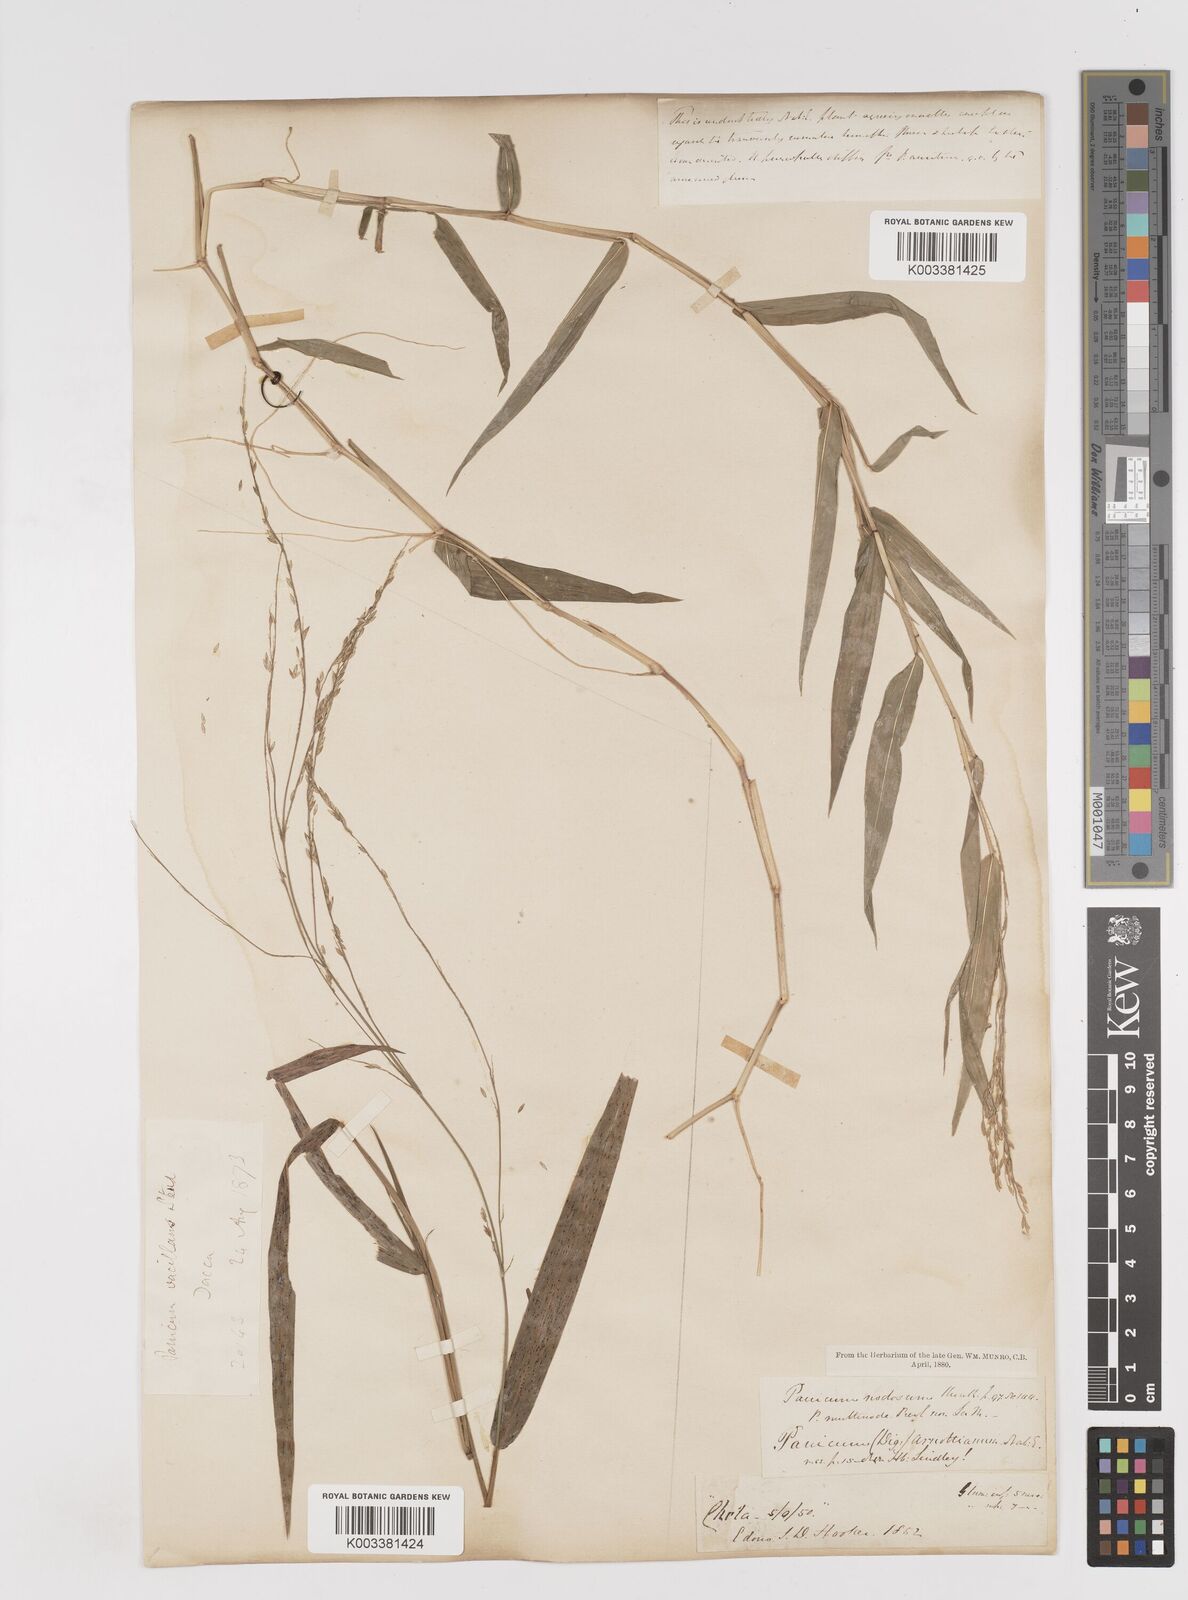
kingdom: Plantae
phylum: Tracheophyta
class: Liliopsida
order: Poales
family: Poaceae
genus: Ottochloa
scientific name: Ottochloa nodosa
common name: Slender-panic grass
